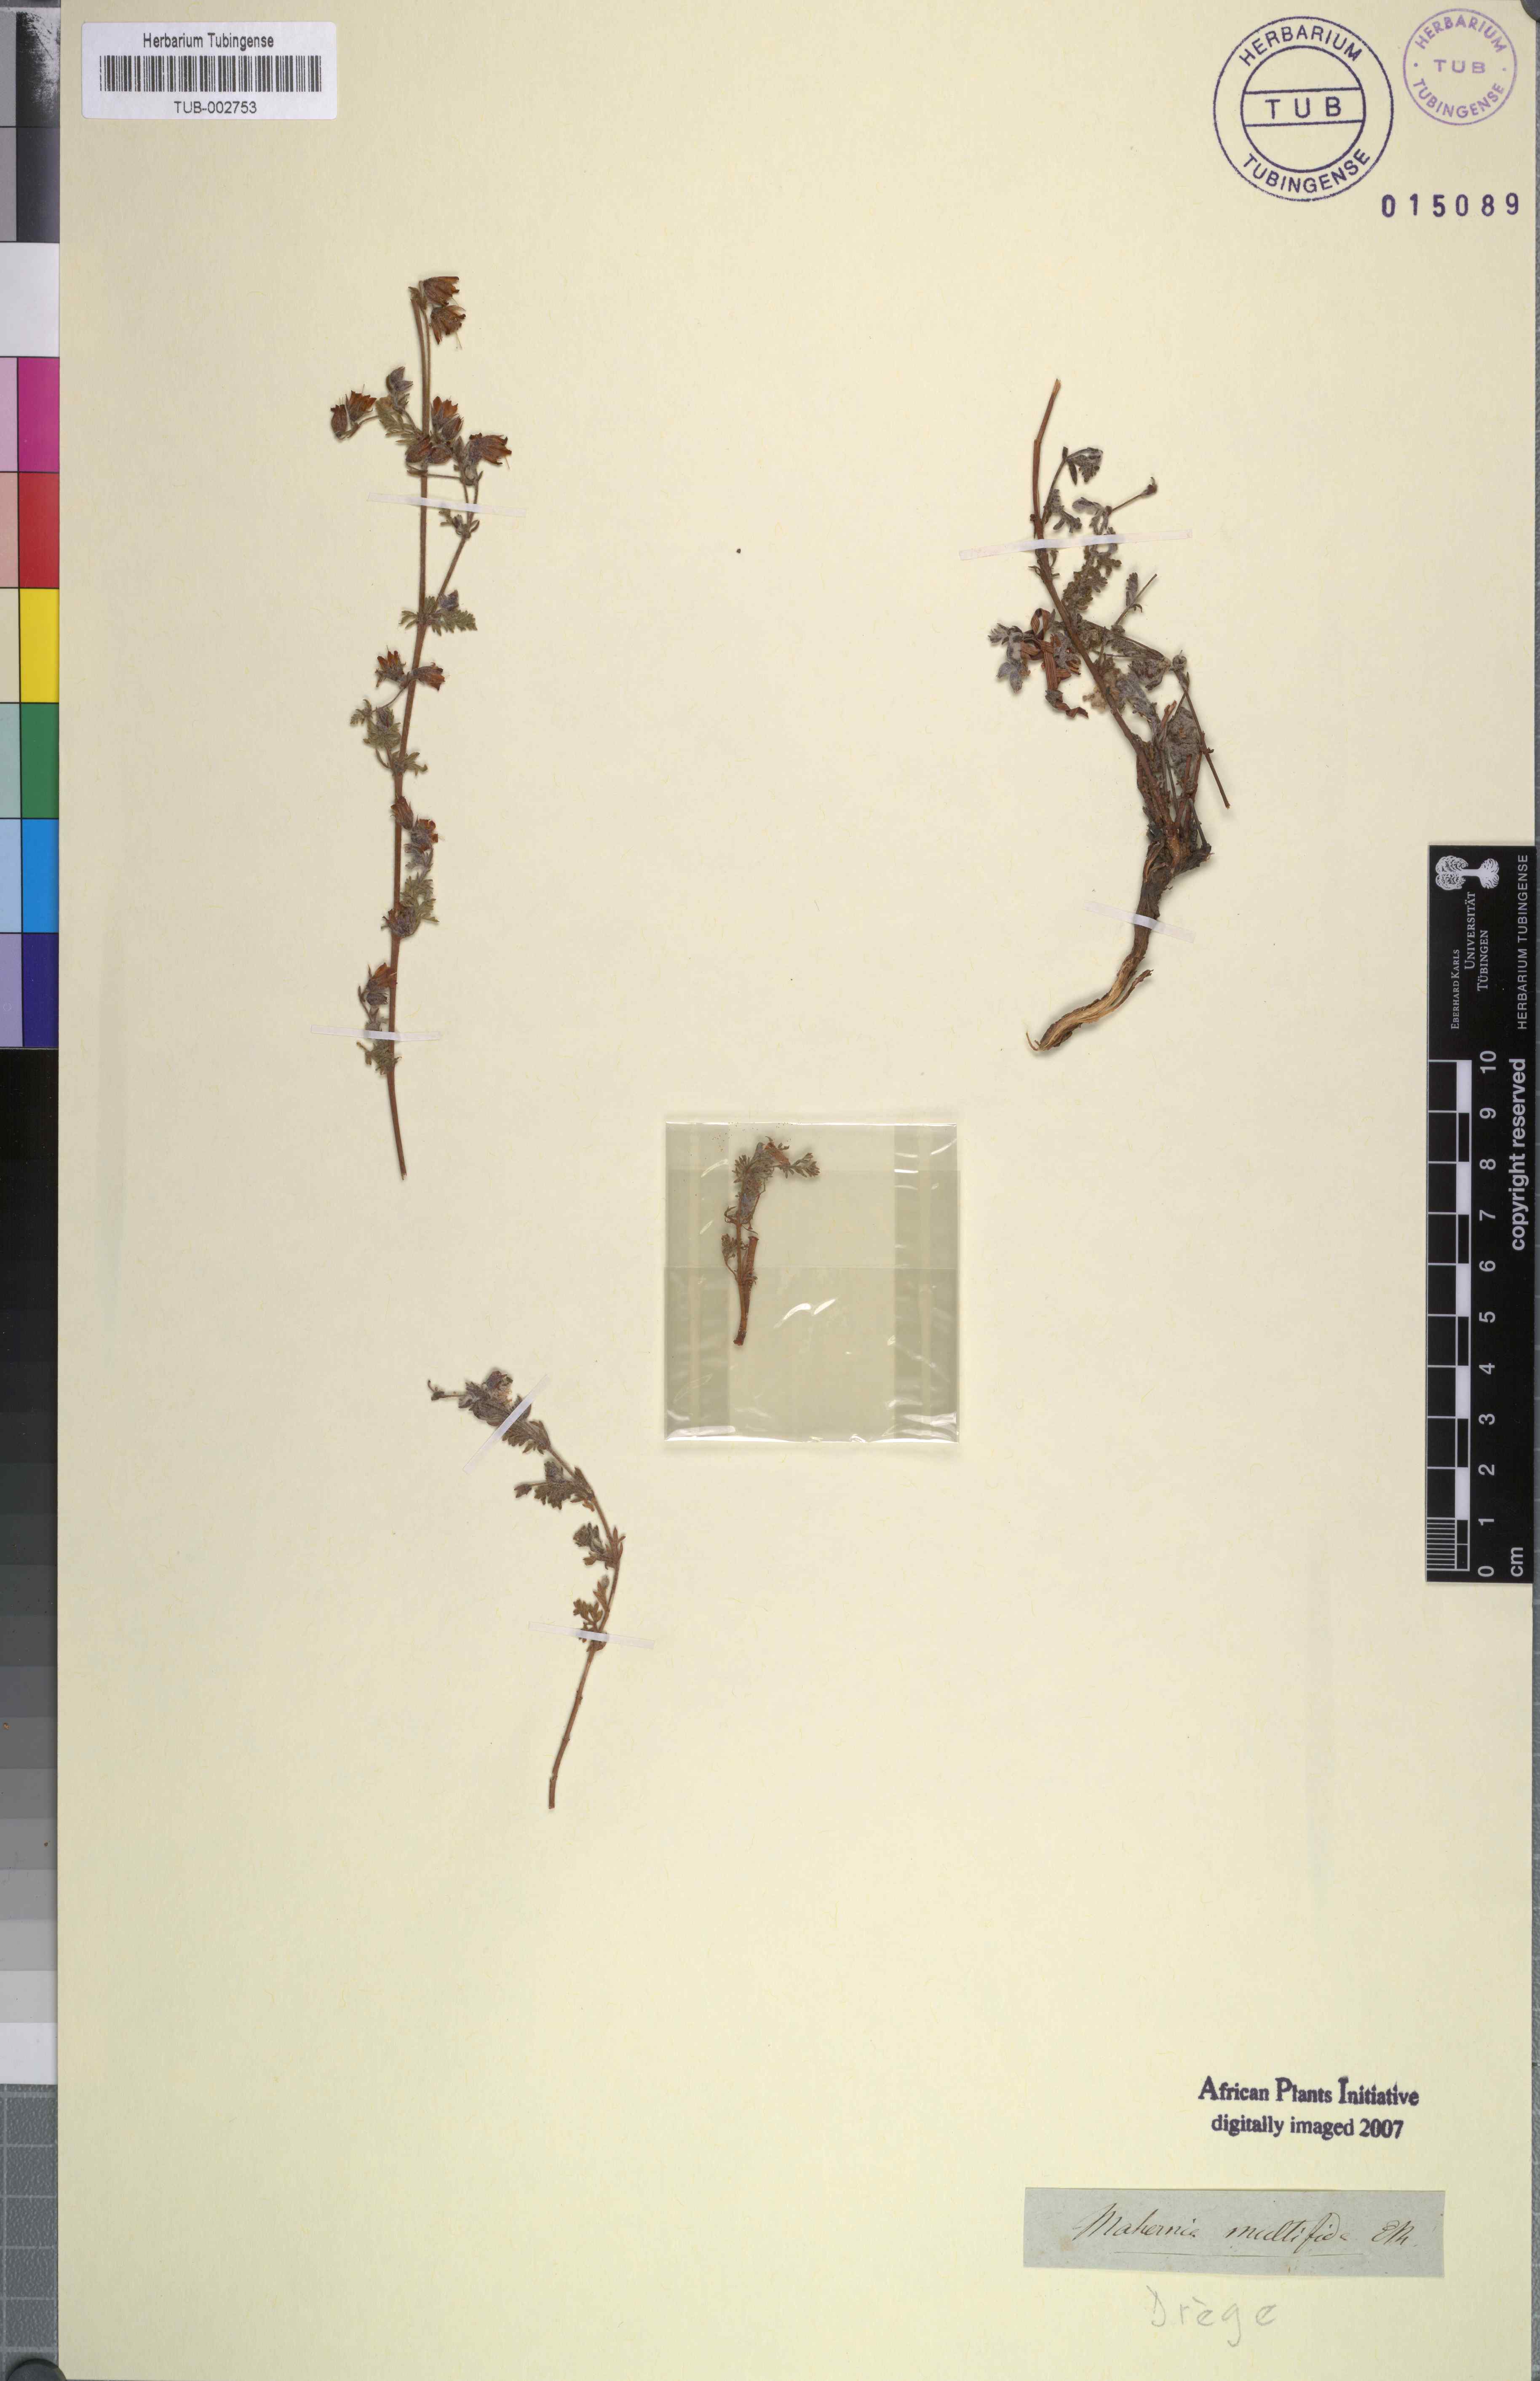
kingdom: Plantae
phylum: Tracheophyta
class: Magnoliopsida
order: Malvales
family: Malvaceae
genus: Hermannia
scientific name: Hermannia abrotanoides
